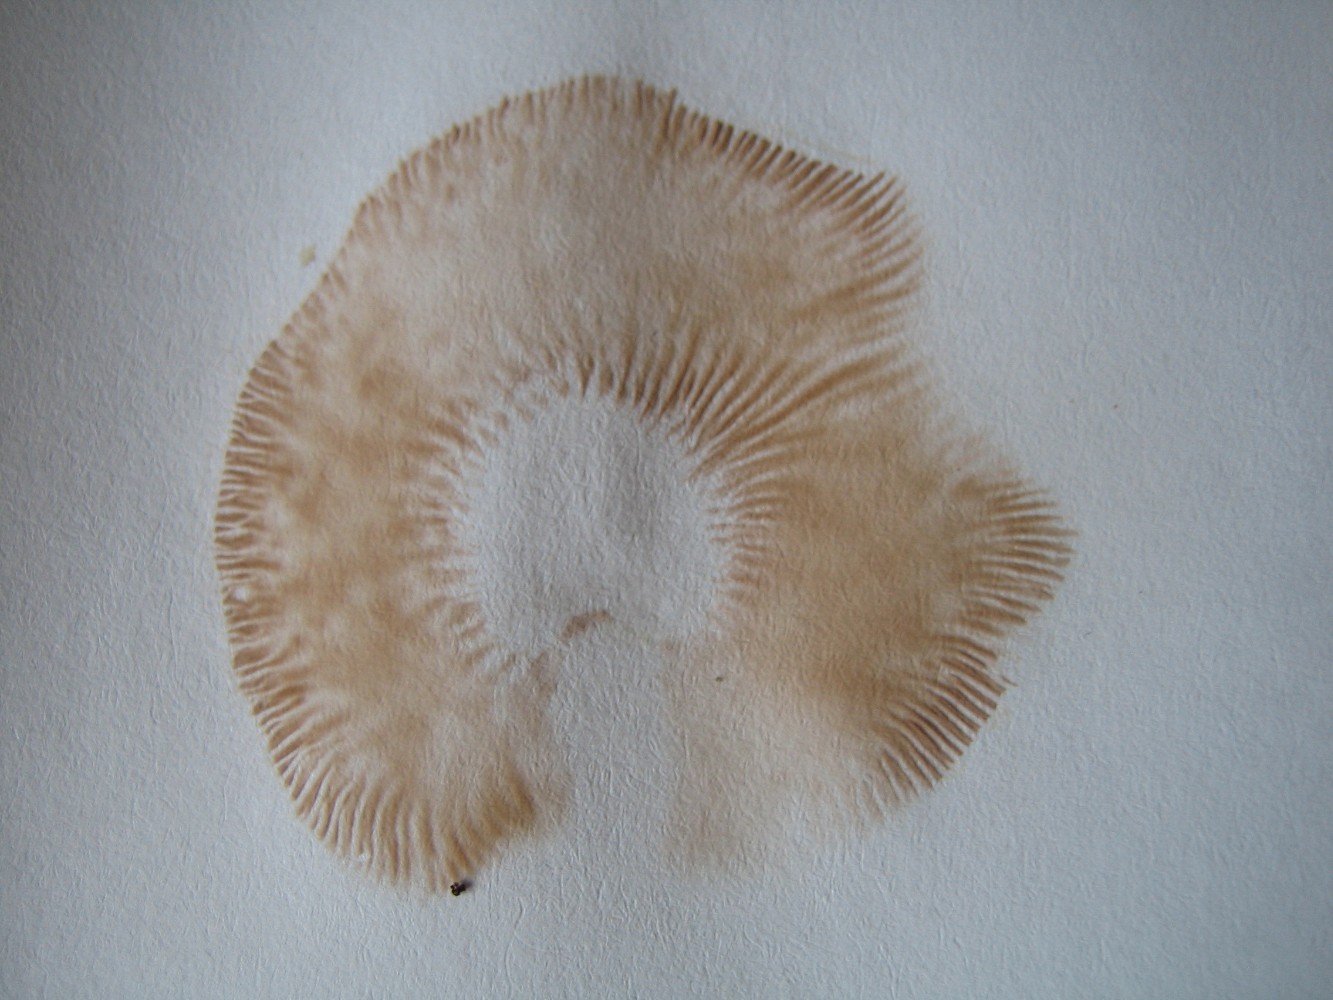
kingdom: Fungi
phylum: Basidiomycota
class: Agaricomycetes
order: Agaricales
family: Entolomataceae
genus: Clitopilus
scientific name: Clitopilus prunulus
